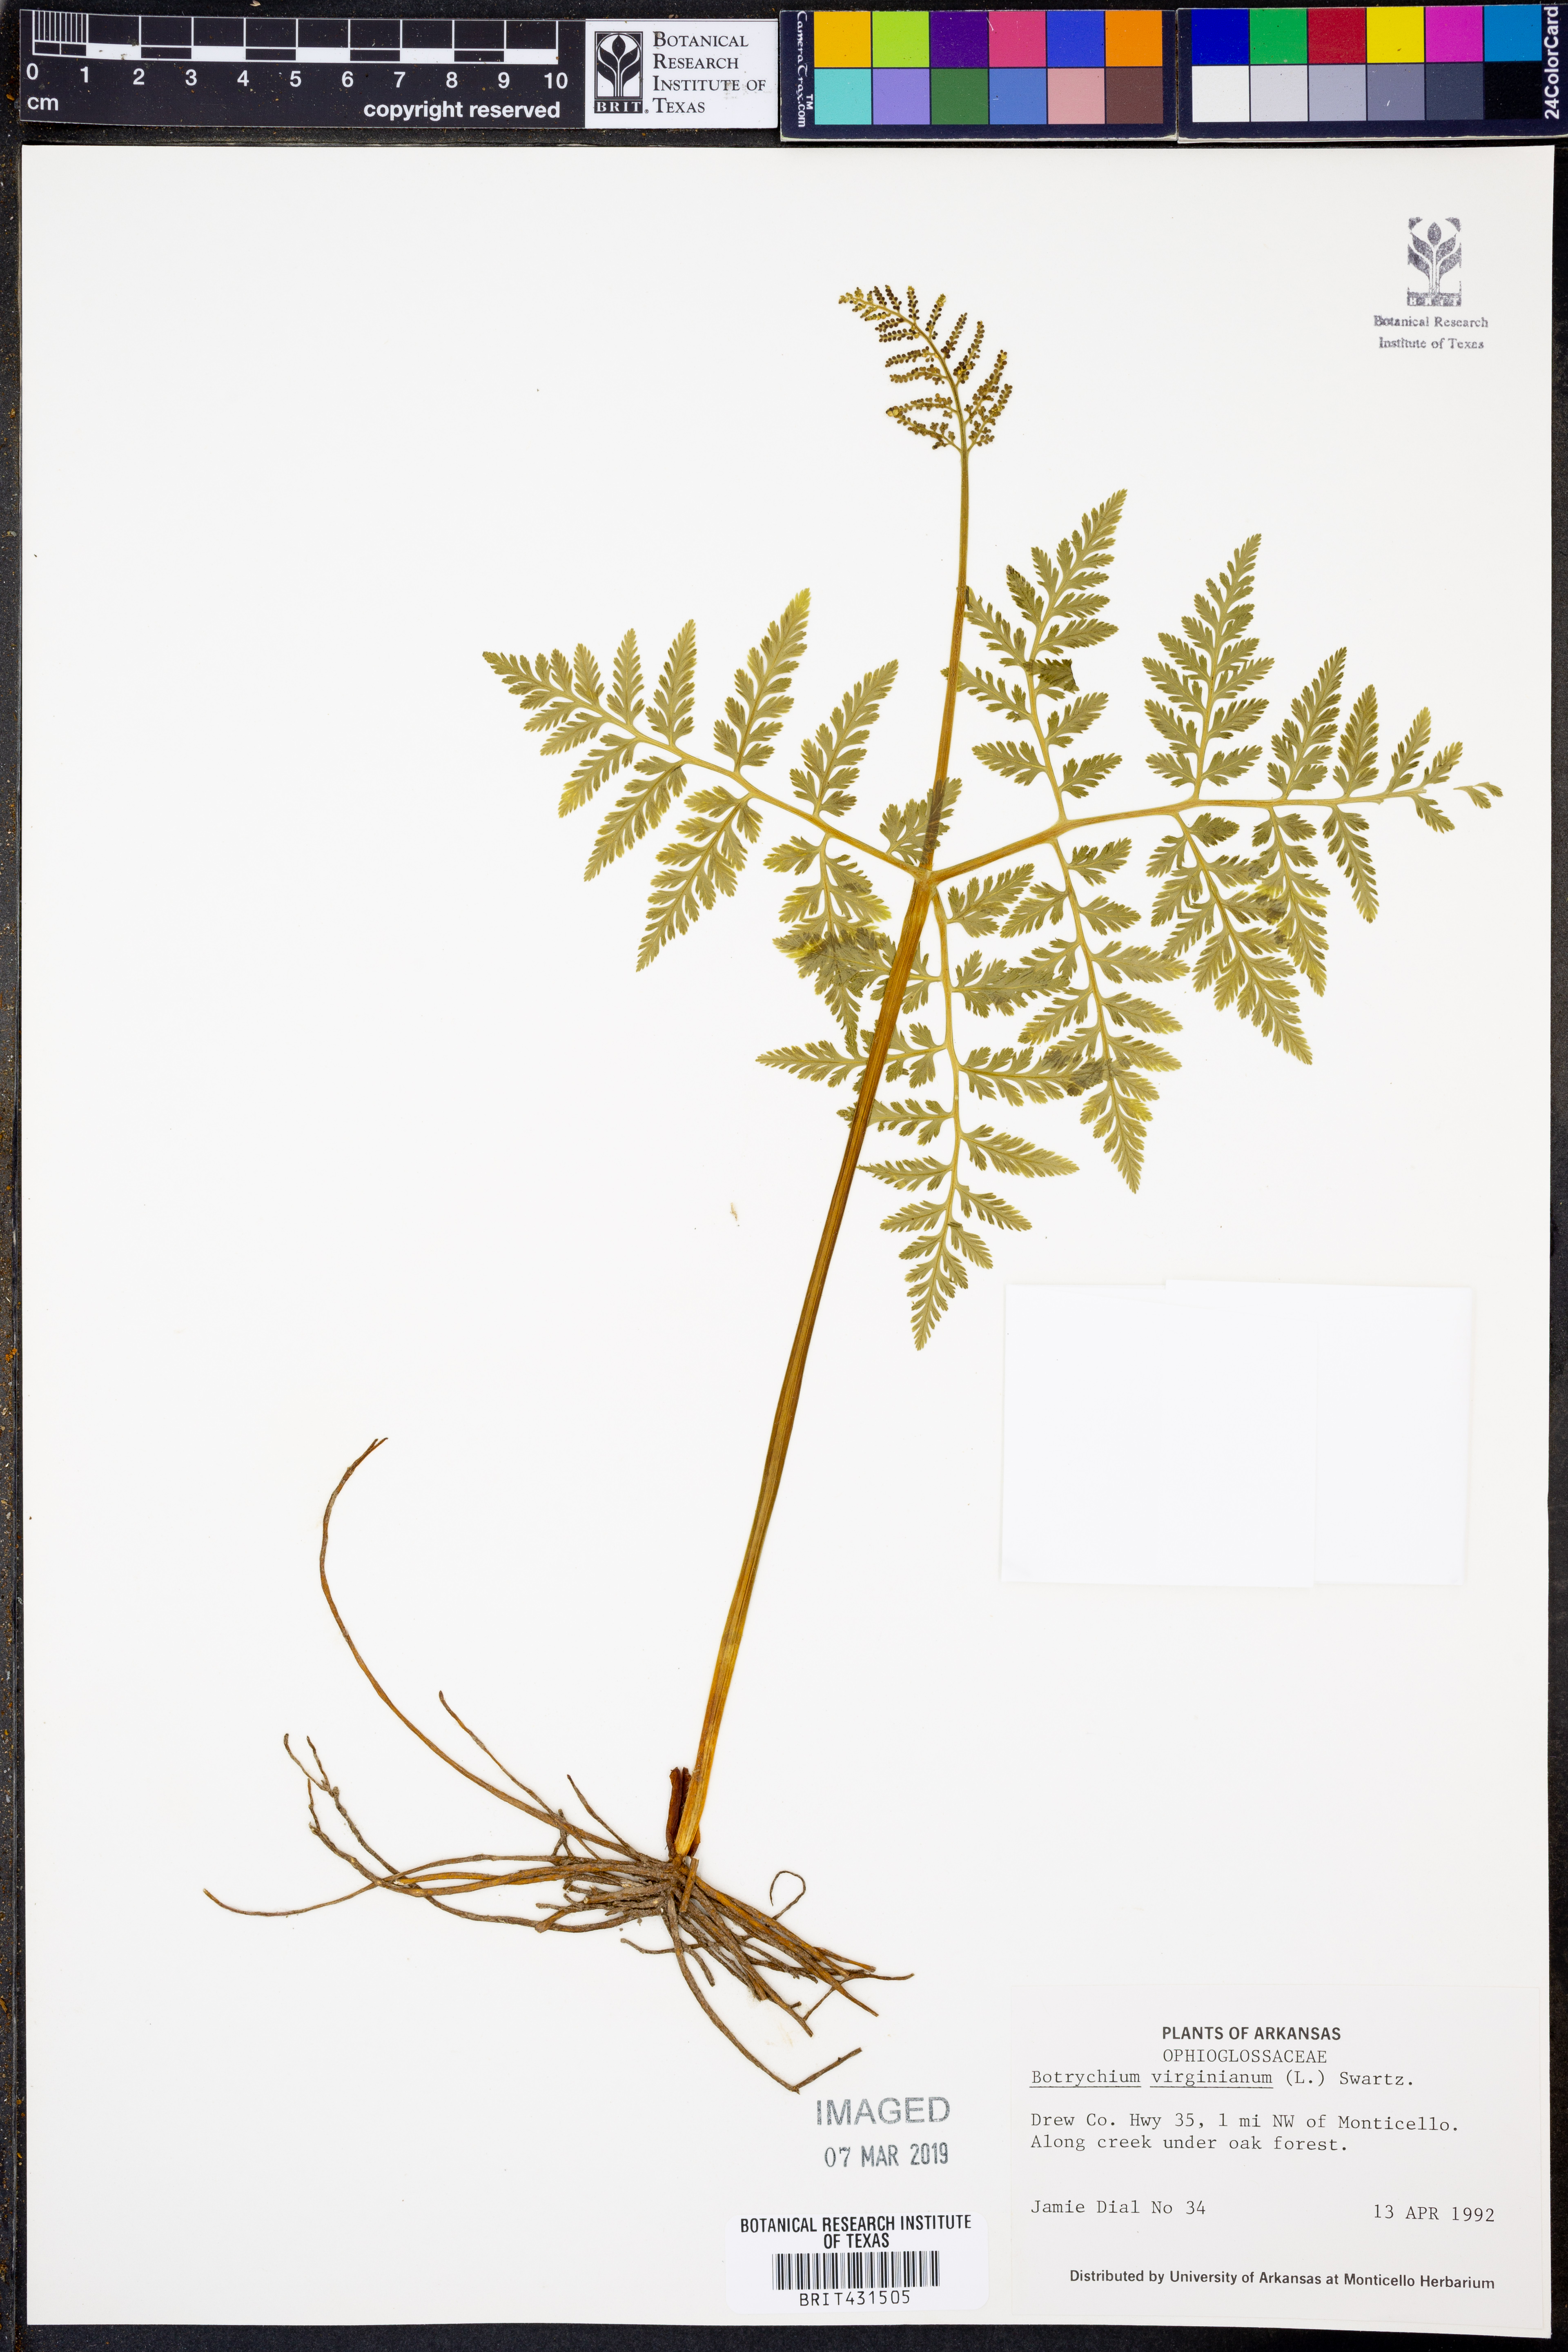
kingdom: Plantae
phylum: Tracheophyta
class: Polypodiopsida
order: Ophioglossales
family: Ophioglossaceae
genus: Botrypus
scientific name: Botrypus virginianus
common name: Common grapefern
